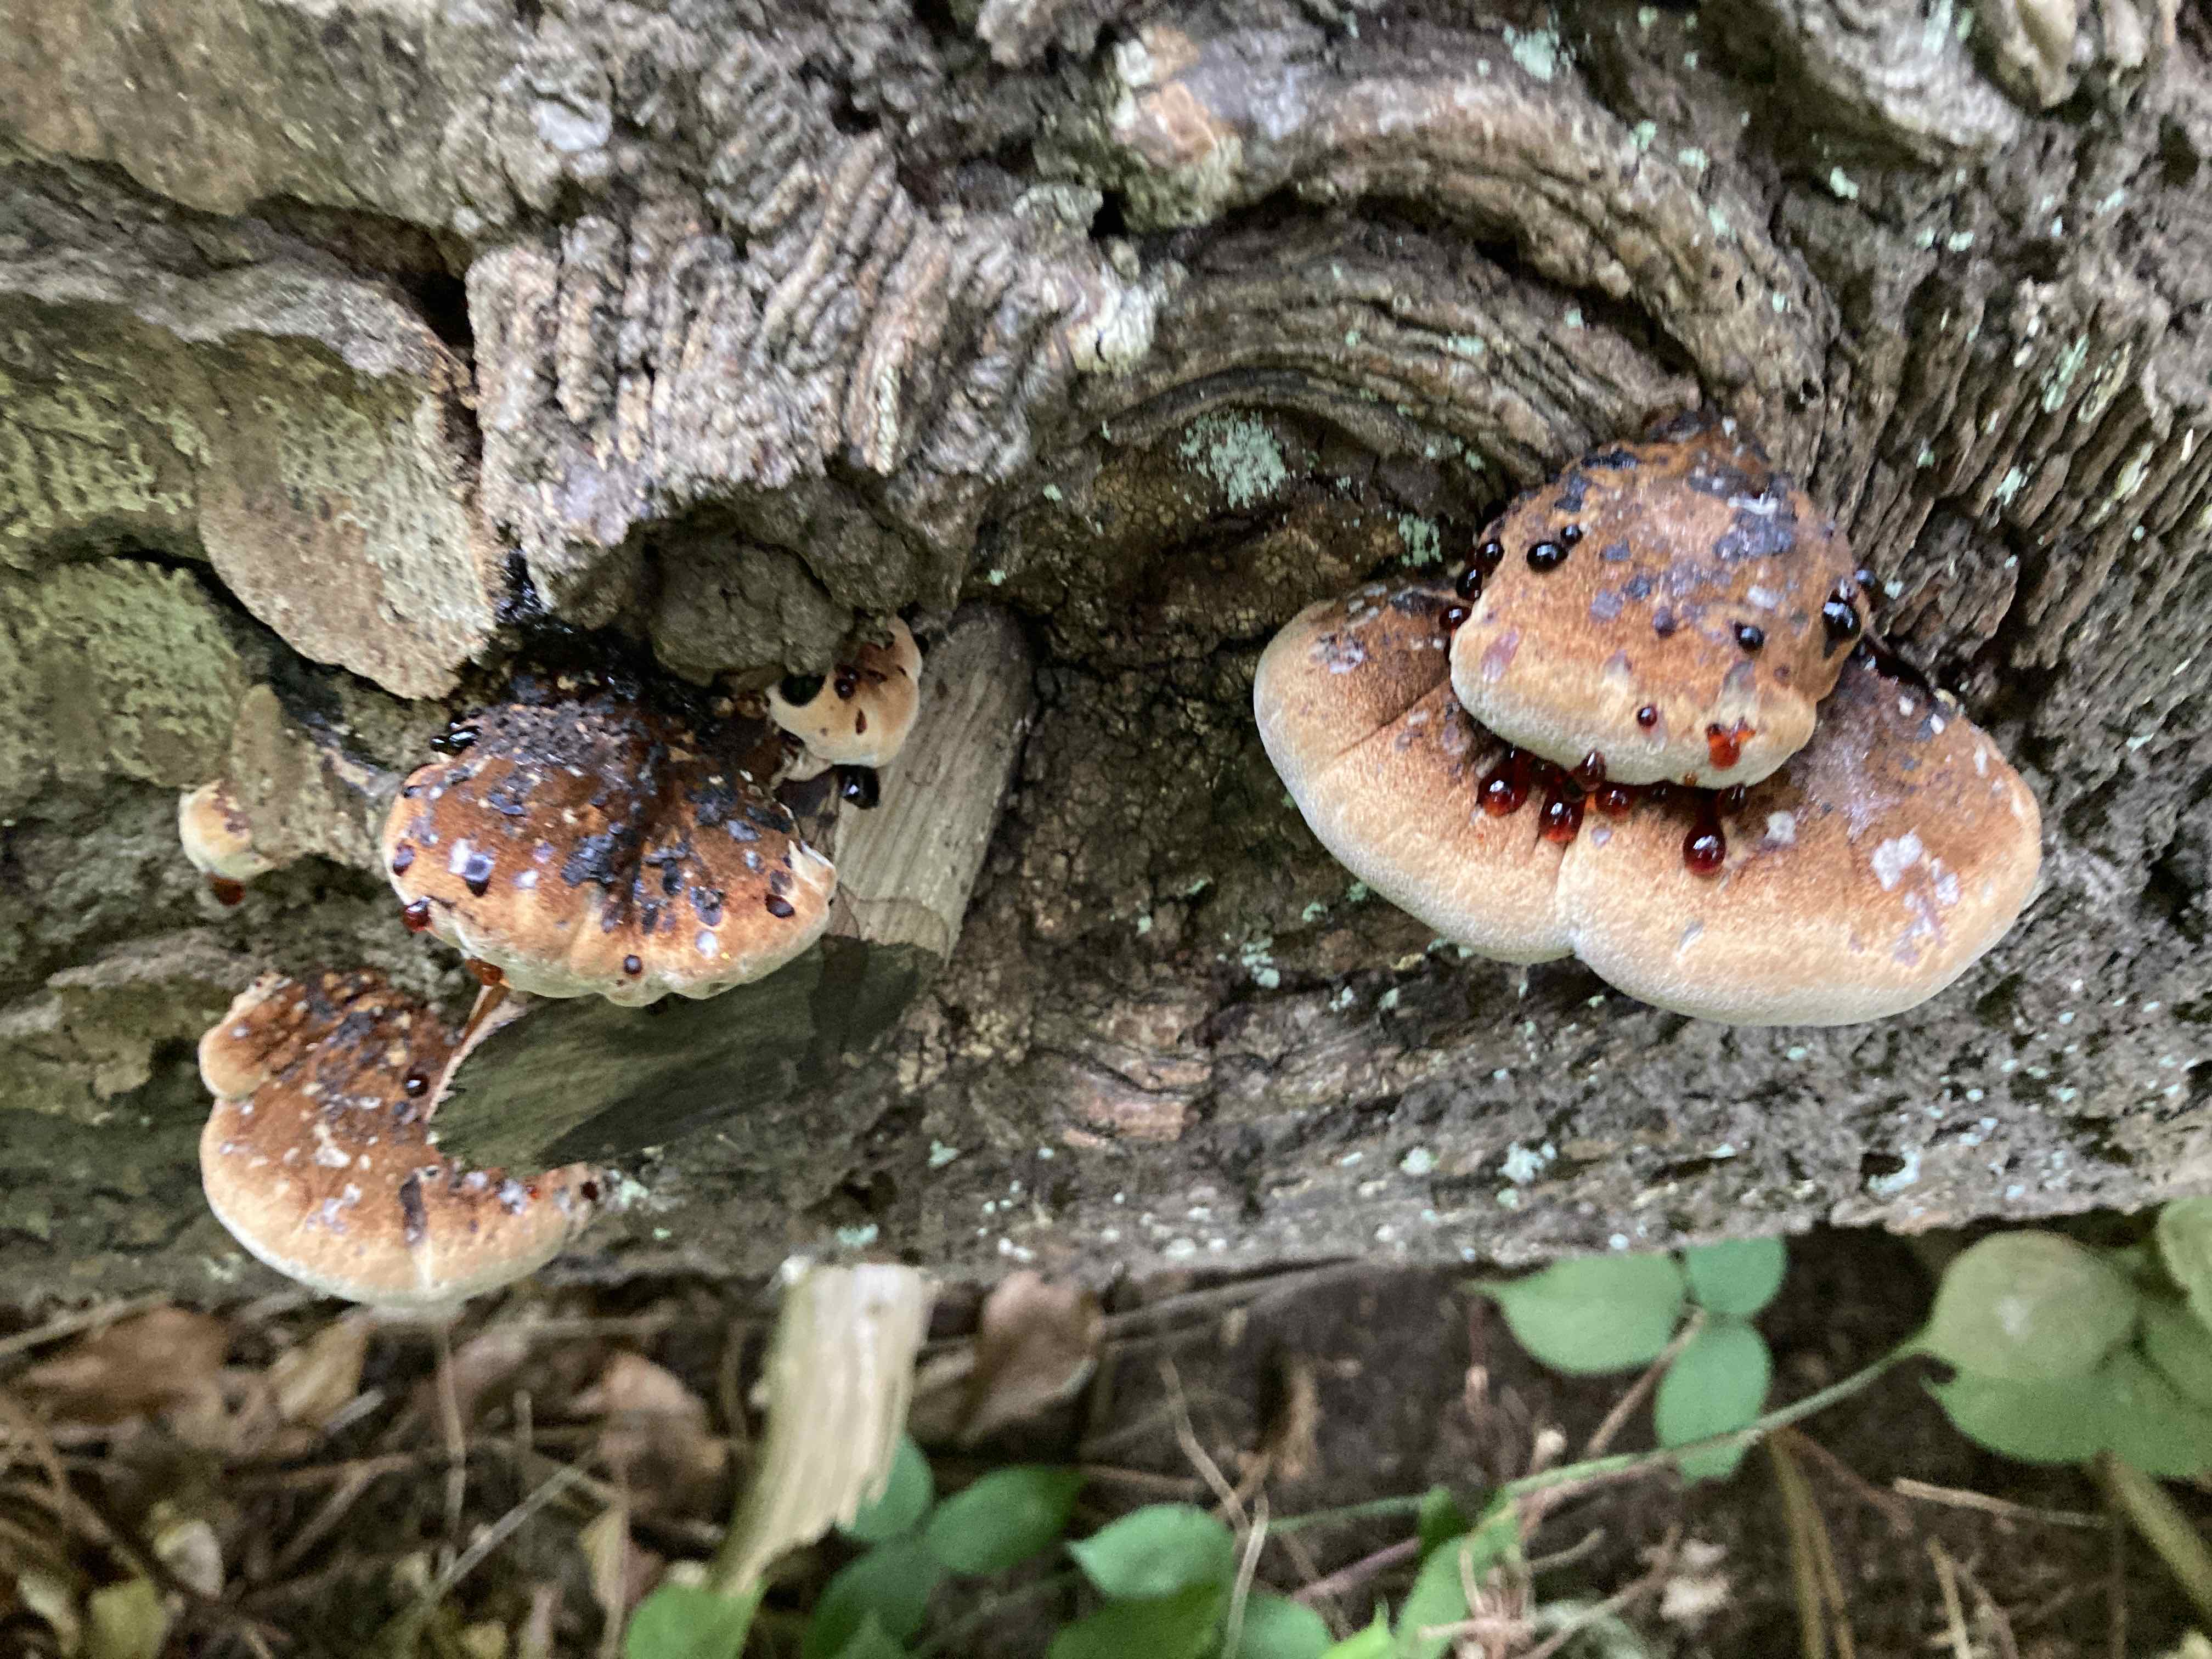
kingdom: Fungi
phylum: Basidiomycota
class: Agaricomycetes
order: Polyporales
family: Ischnodermataceae
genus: Ischnoderma
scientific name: Ischnoderma benzoinum
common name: gran-tjæreporesvamp
